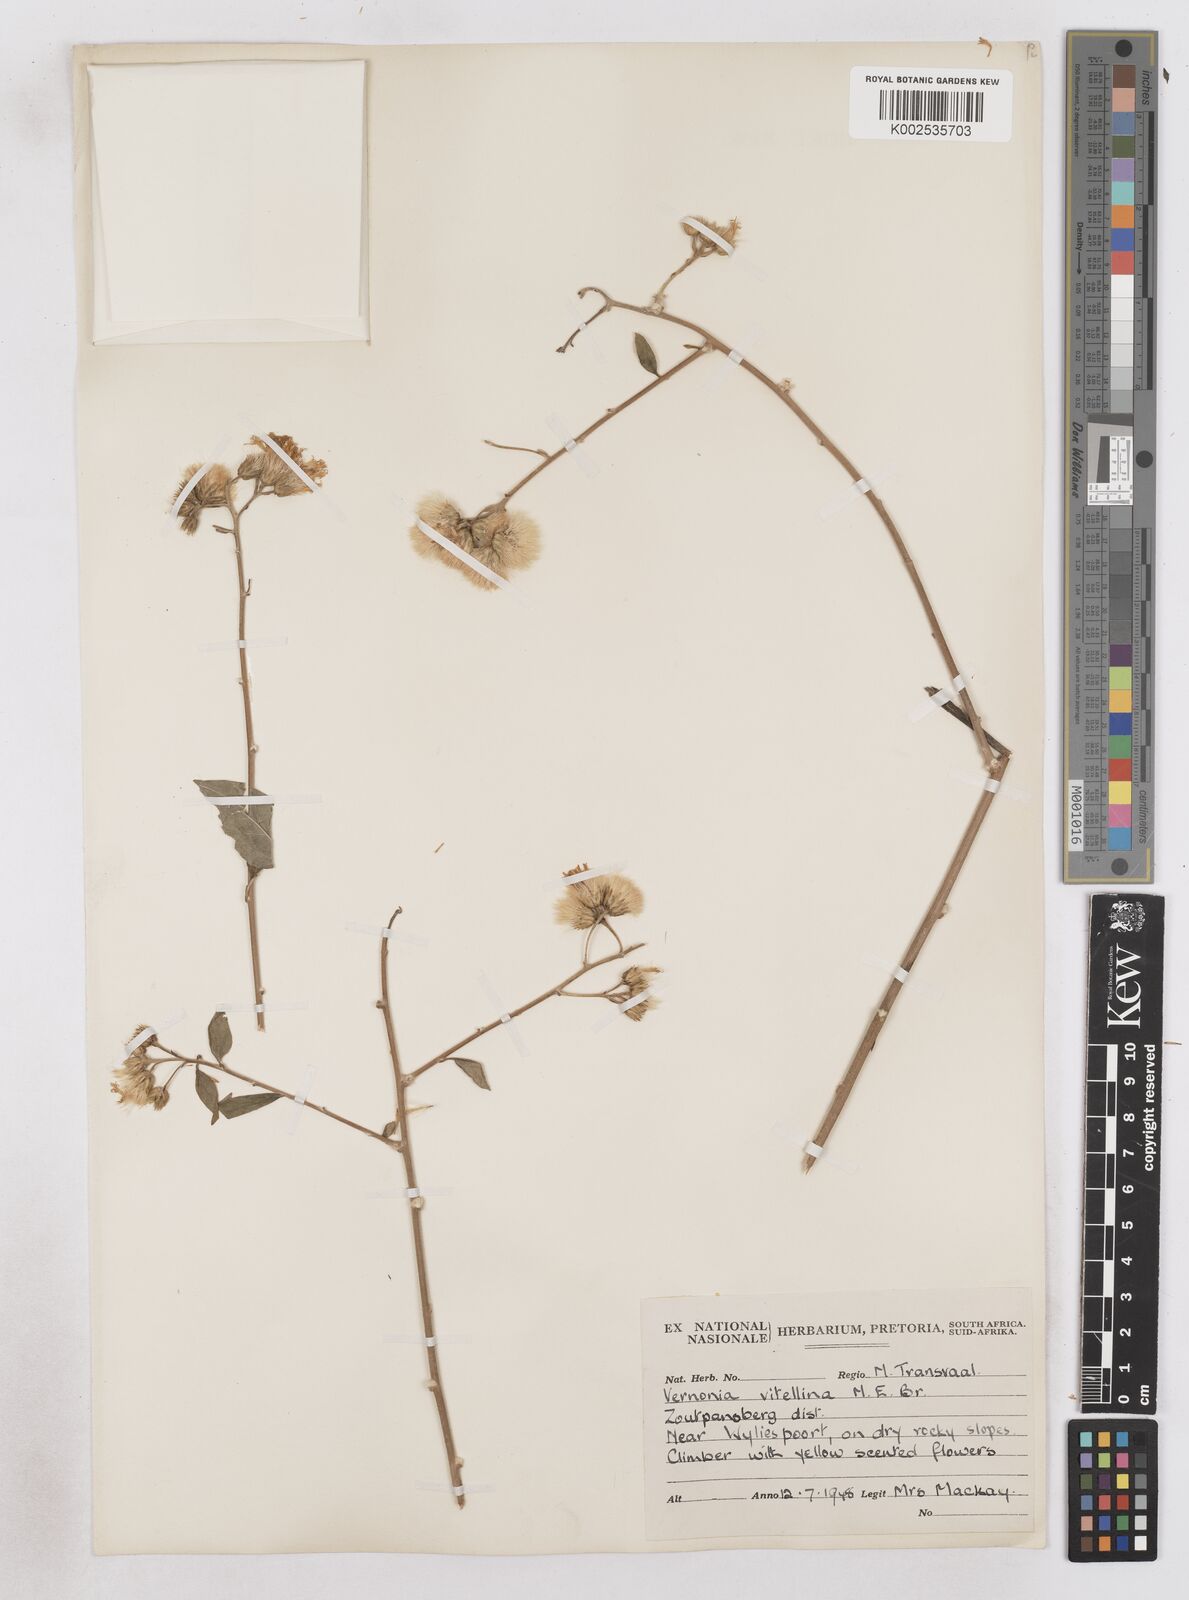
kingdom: Plantae
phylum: Tracheophyta
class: Magnoliopsida
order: Asterales
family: Asteraceae
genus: Distephanus
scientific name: Distephanus
